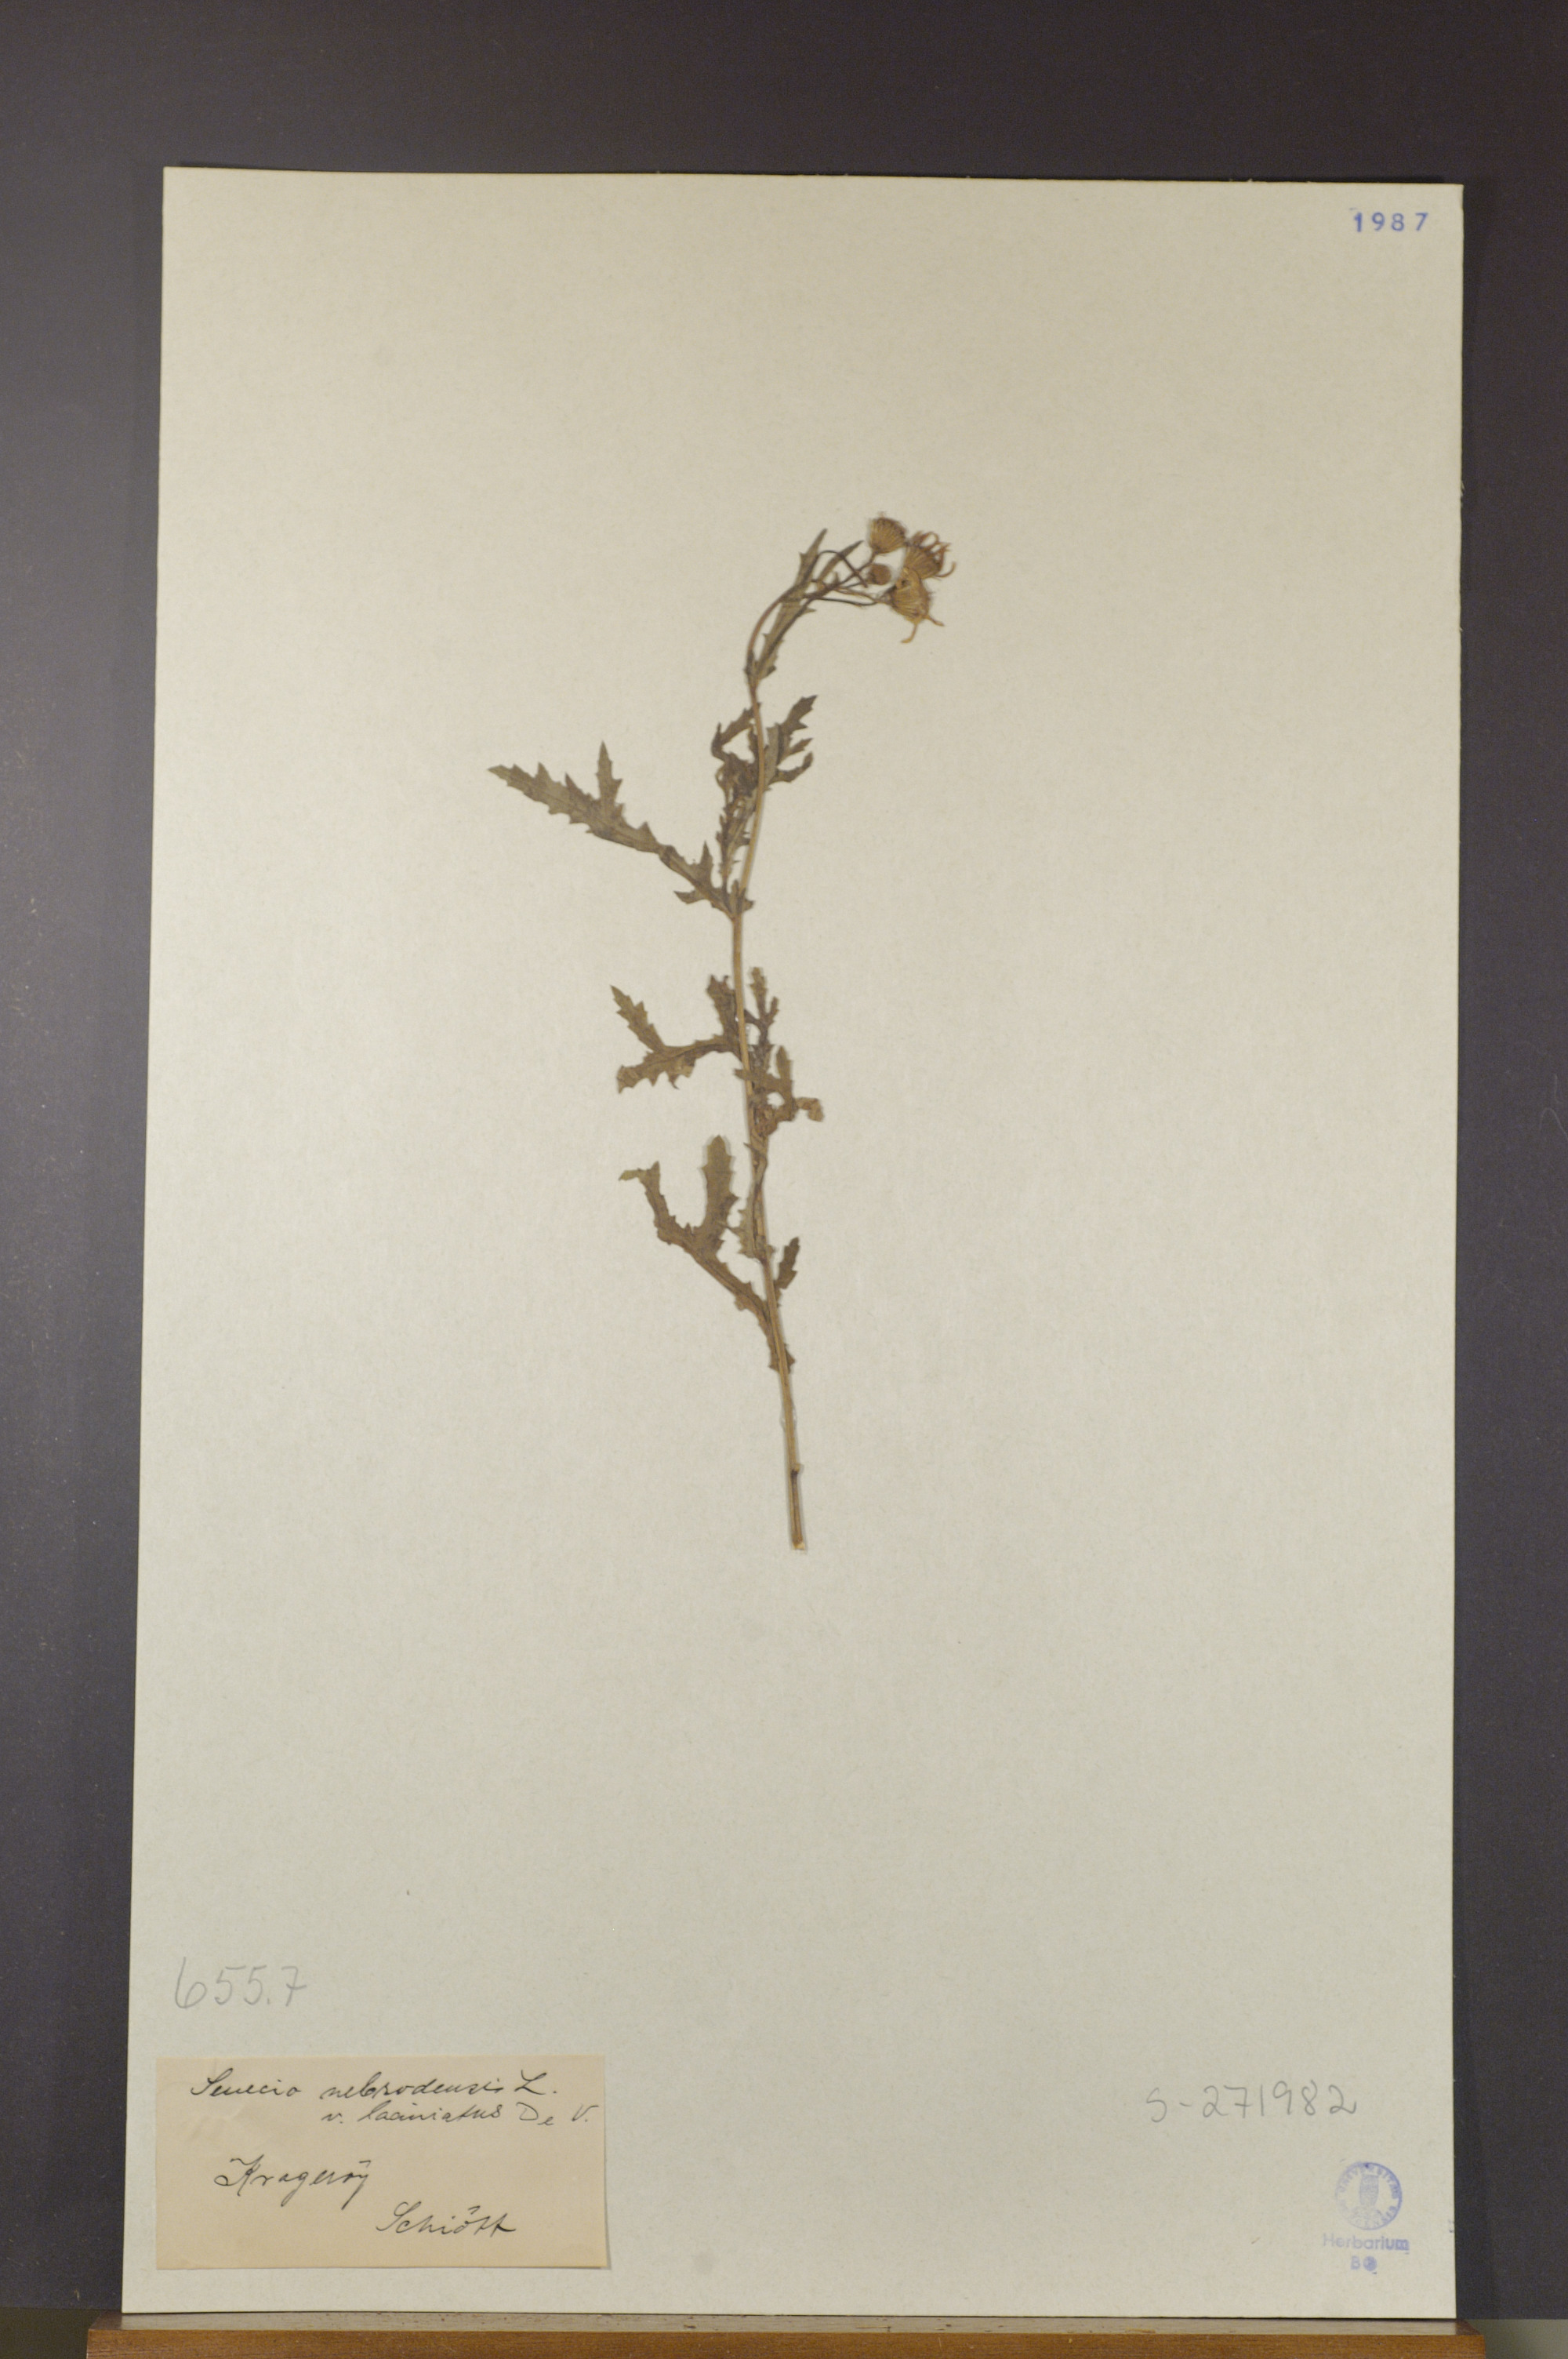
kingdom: Plantae
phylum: Tracheophyta
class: Magnoliopsida
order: Asterales
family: Asteraceae
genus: Senecio
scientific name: Senecio squalidus
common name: Oxford ragwort
